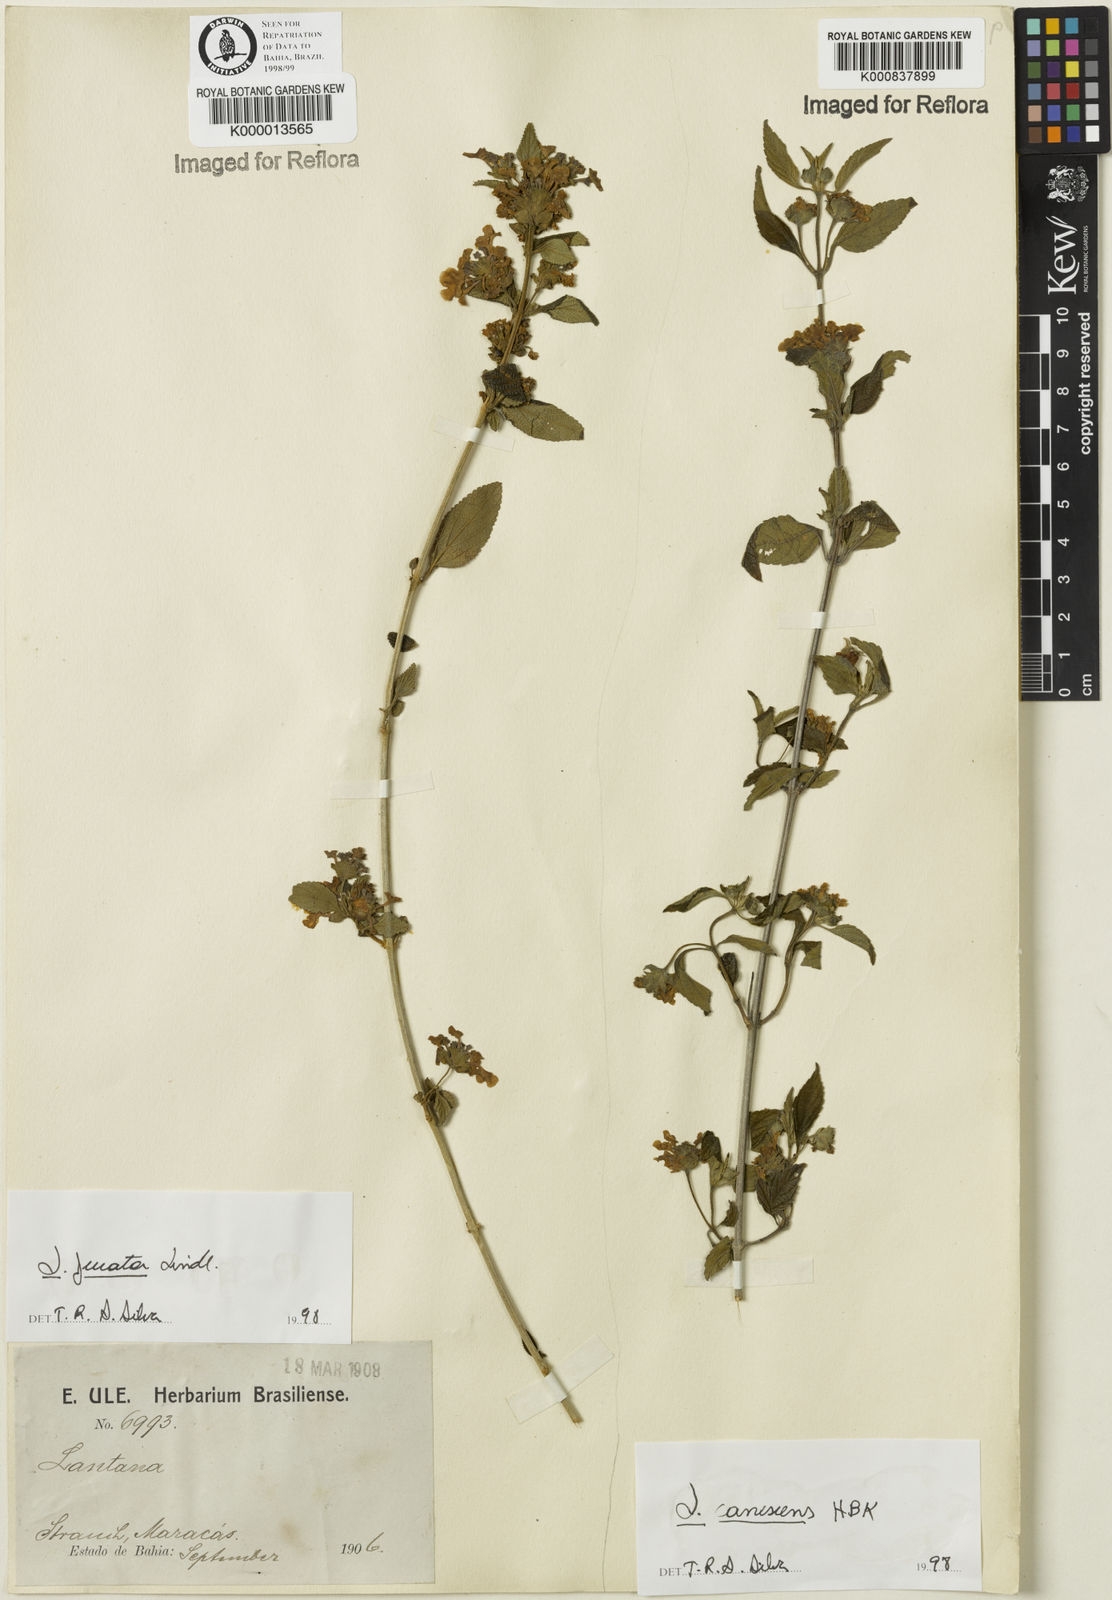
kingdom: Plantae
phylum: Tracheophyta
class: Magnoliopsida
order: Lamiales
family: Verbenaceae
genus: Lantana
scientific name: Lantana canescens
